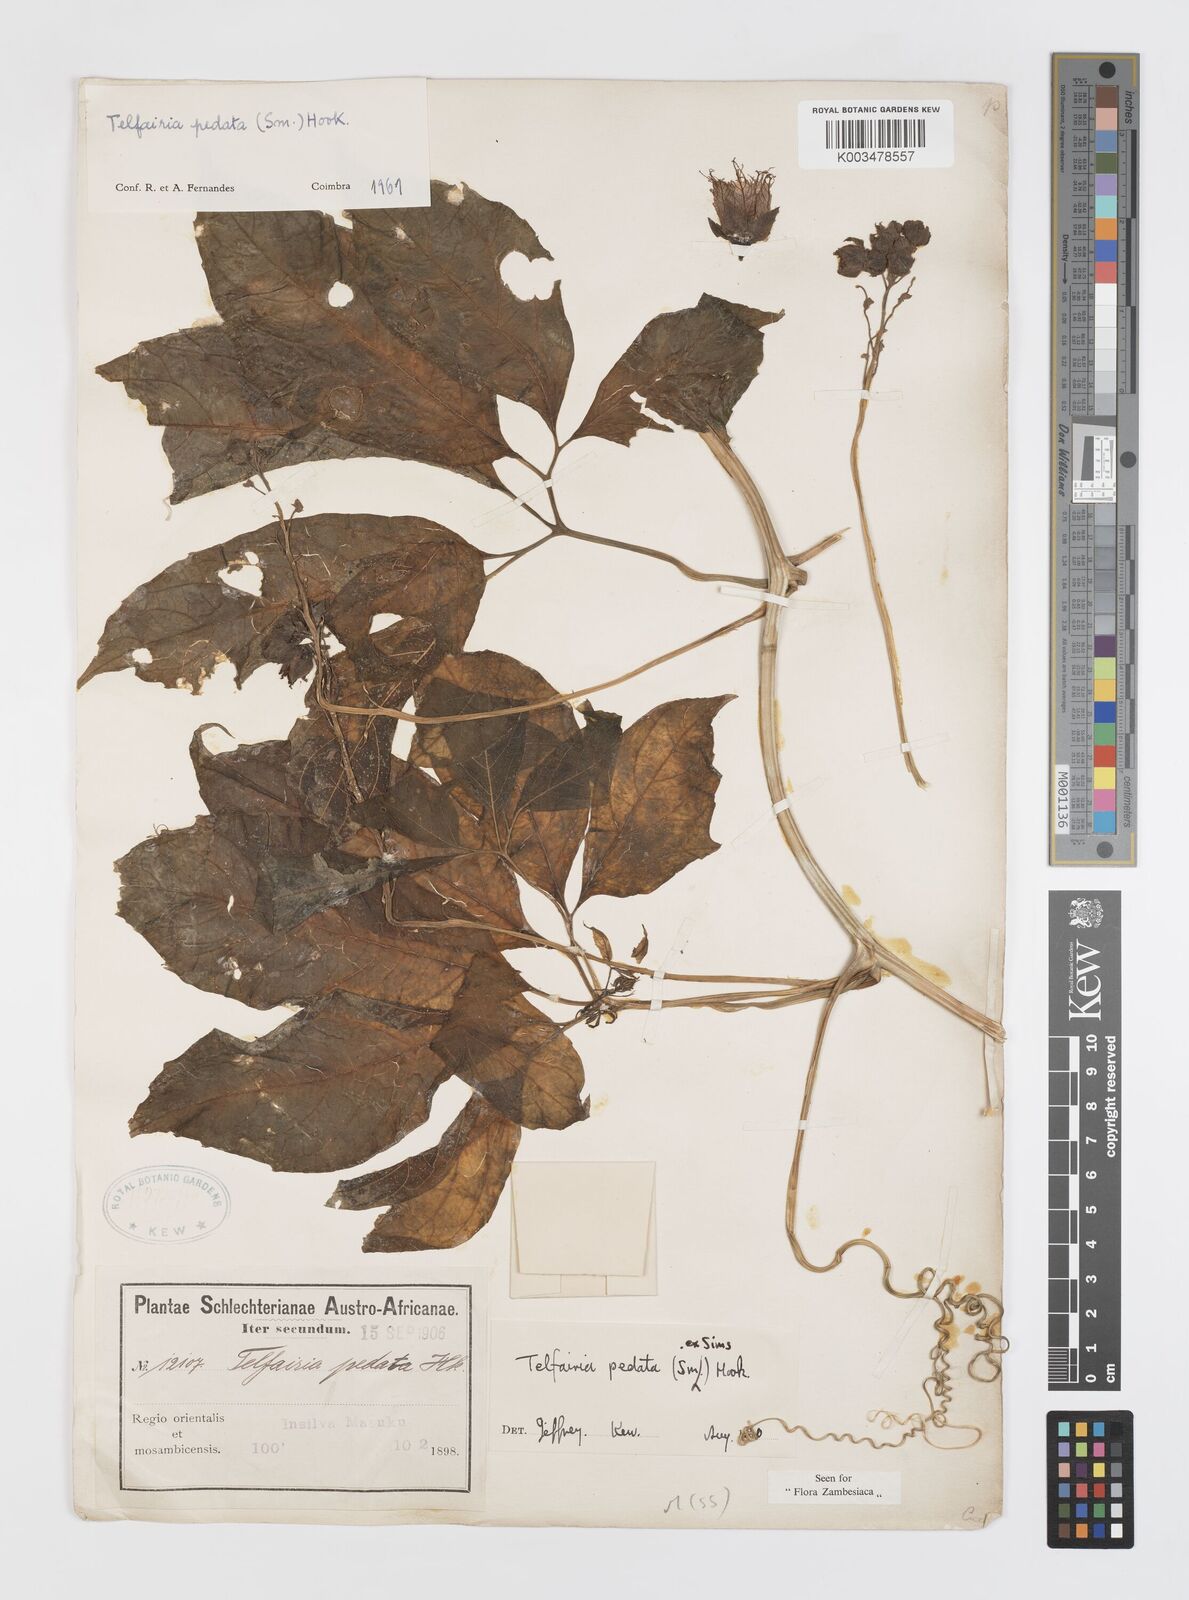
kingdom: Plantae
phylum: Tracheophyta
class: Magnoliopsida
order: Cucurbitales
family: Cucurbitaceae
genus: Telfairia
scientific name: Telfairia pedata
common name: Zanzibar oilvine
